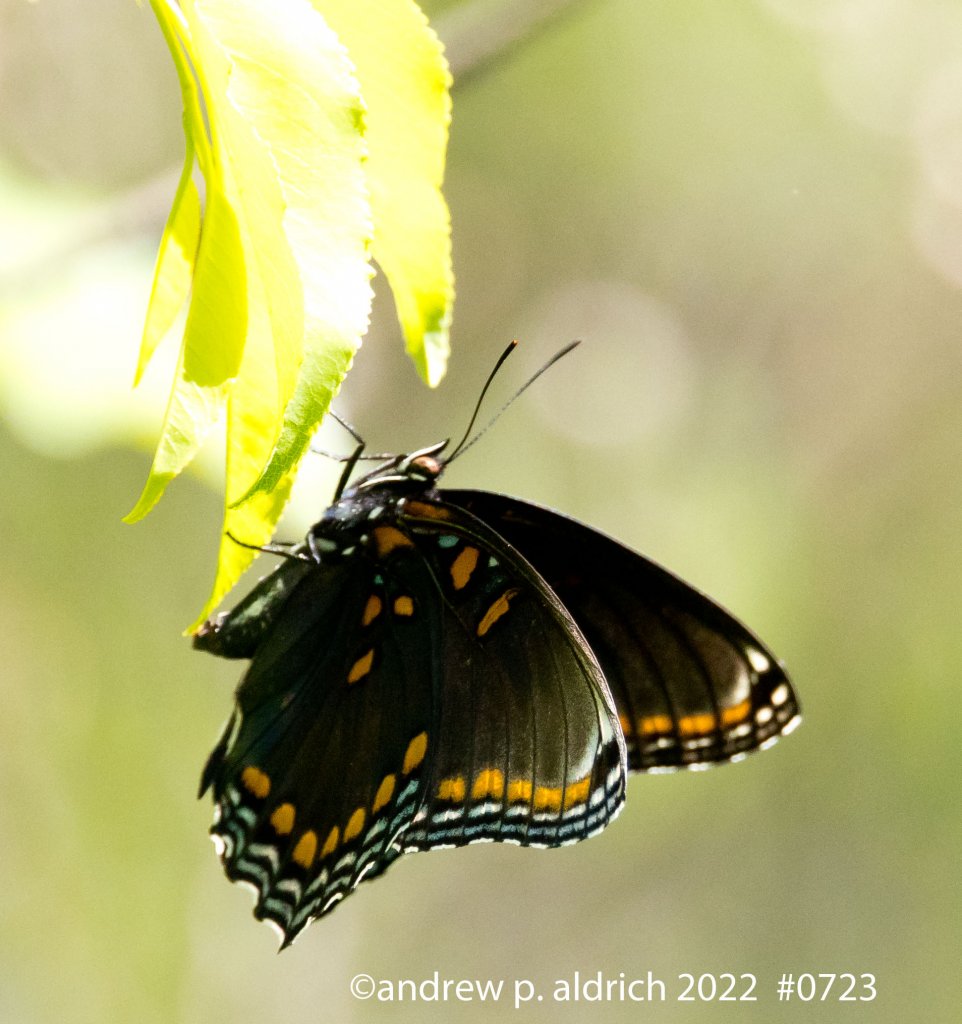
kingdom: Animalia
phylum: Arthropoda
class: Insecta
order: Lepidoptera
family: Nymphalidae
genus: Limenitis
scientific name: Limenitis arthemis
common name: Red-spotted Admiral
